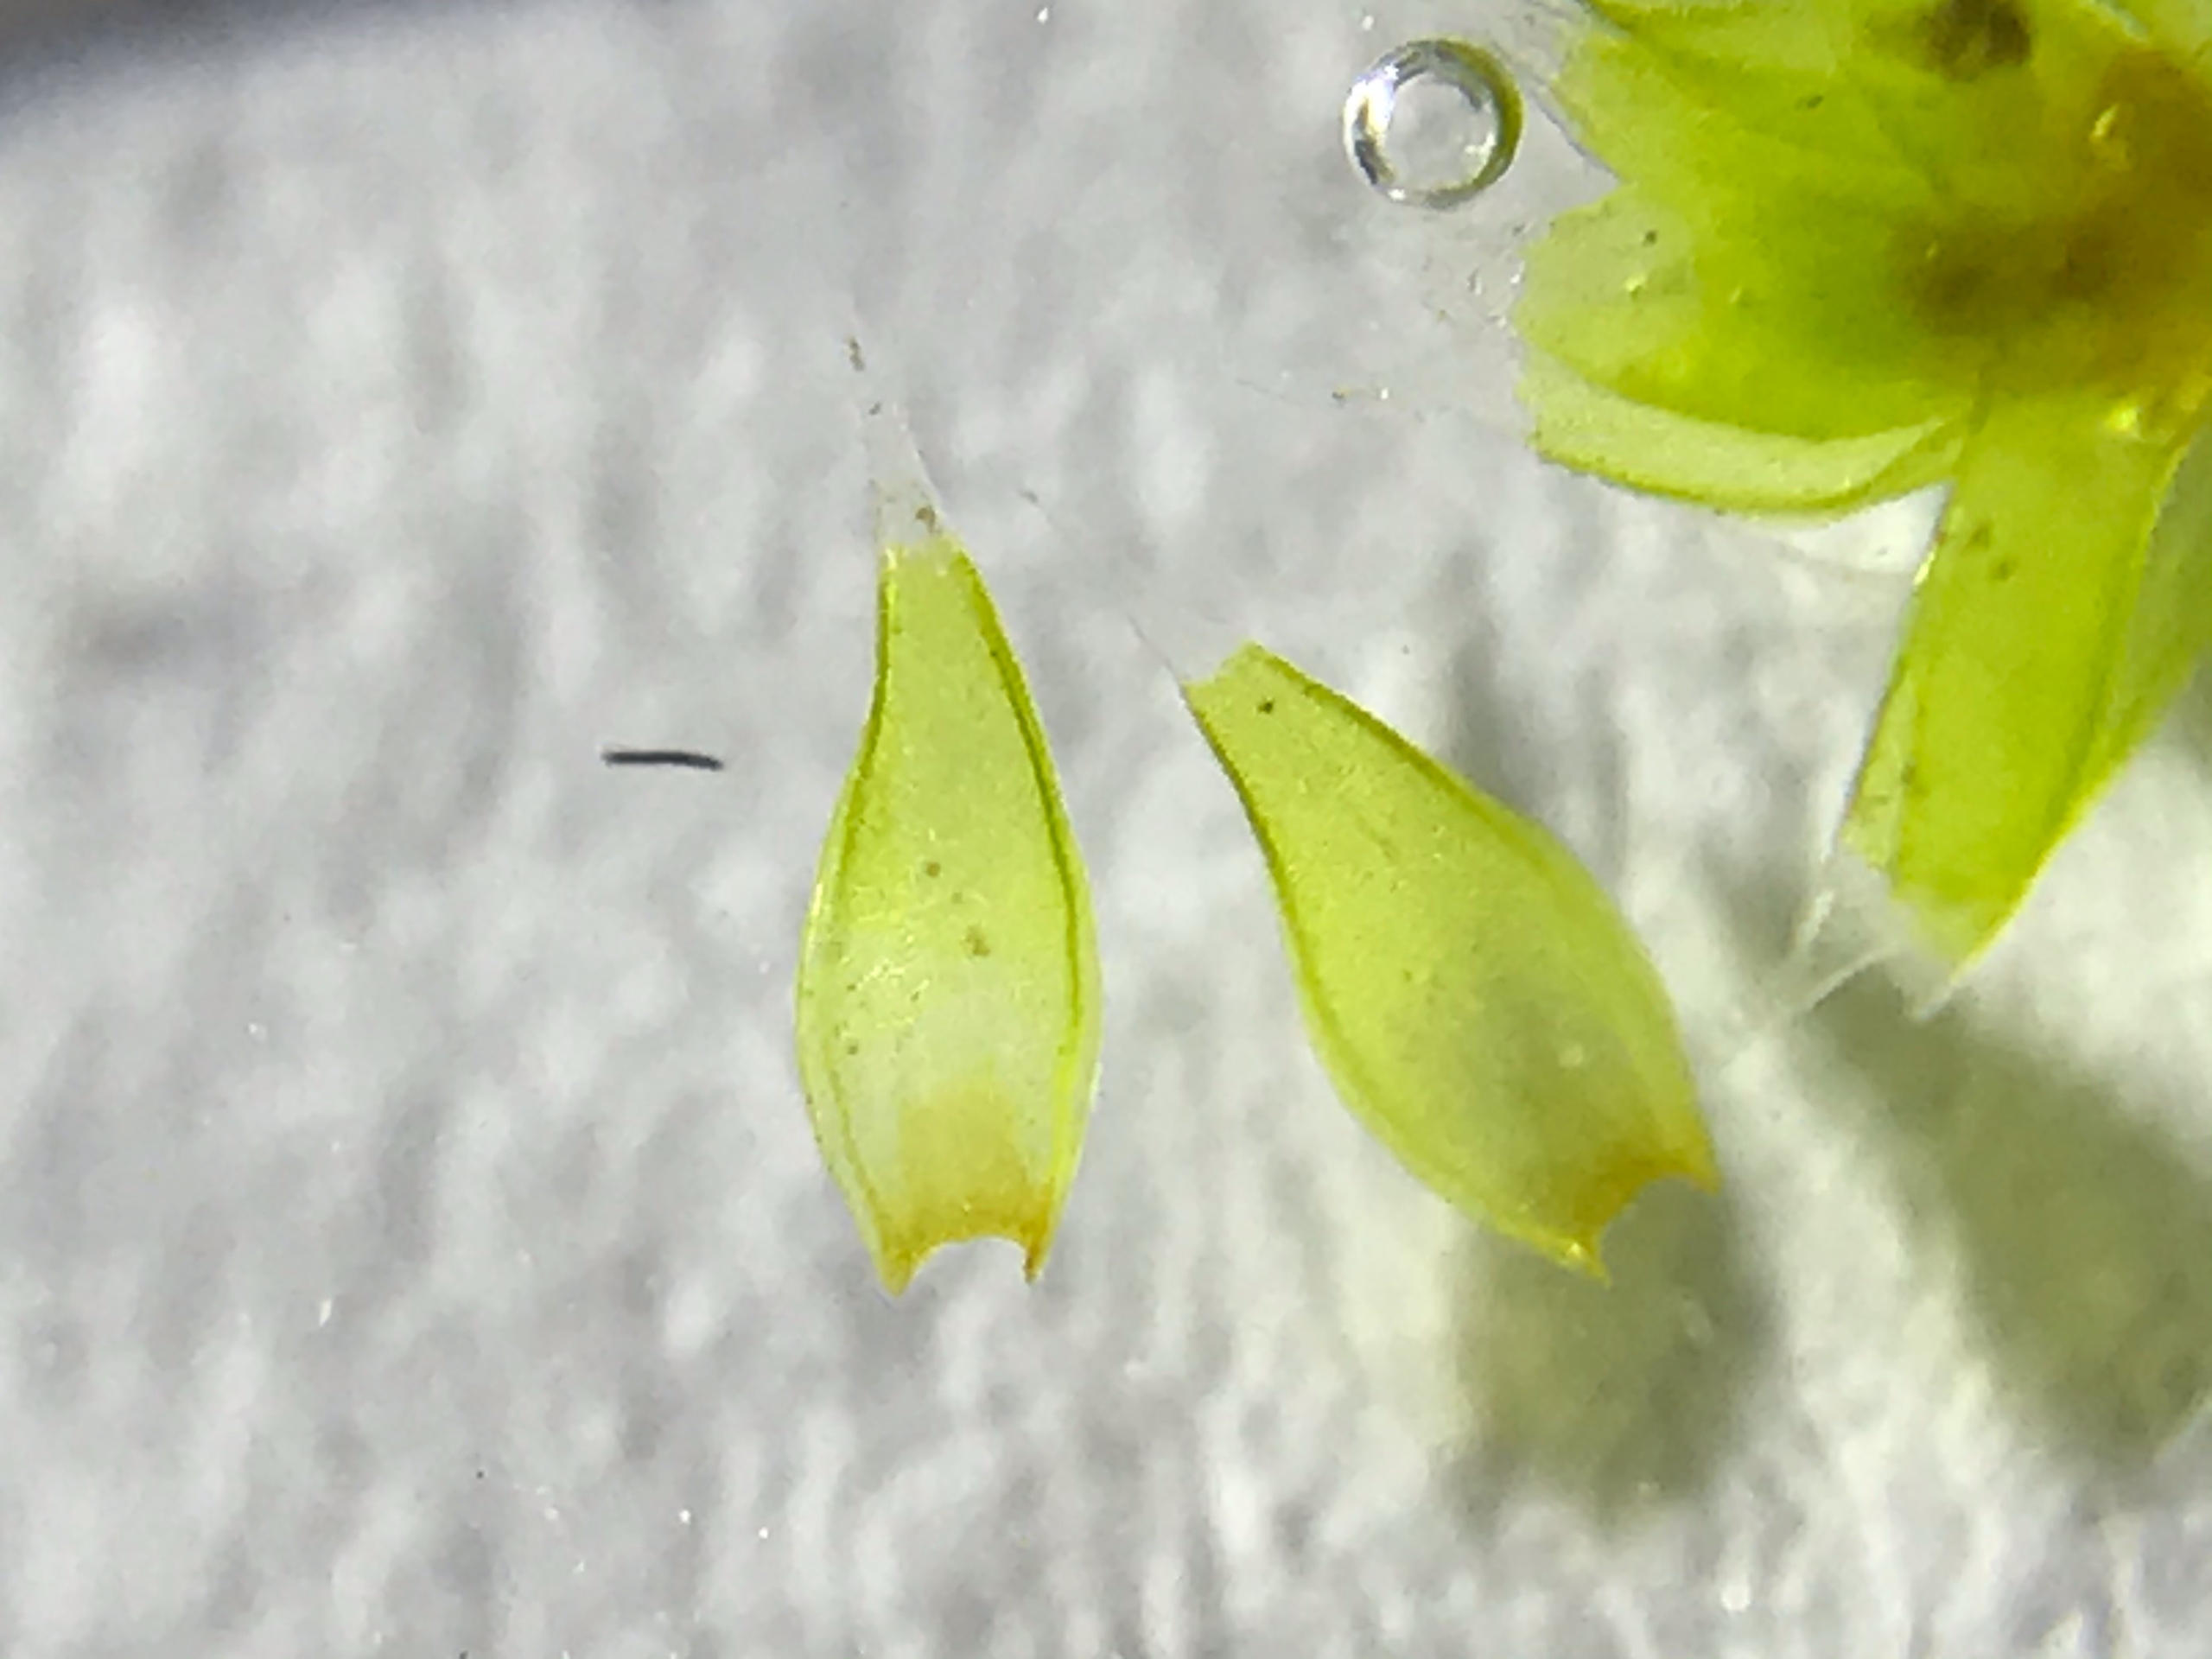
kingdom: Plantae
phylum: Bryophyta
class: Bryopsida
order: Hedwigiales
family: Hedwigiaceae
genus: Hedwigia
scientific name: Hedwigia
